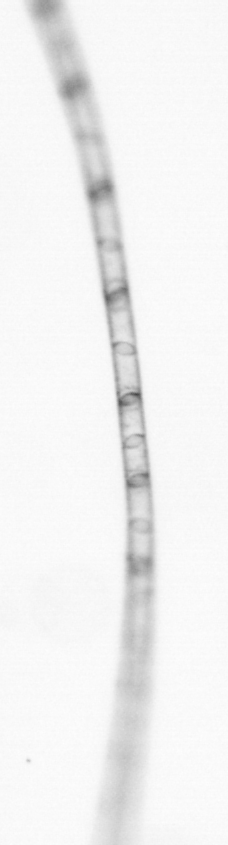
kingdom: Chromista
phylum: Ochrophyta
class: Bacillariophyceae
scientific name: Bacillariophyceae
